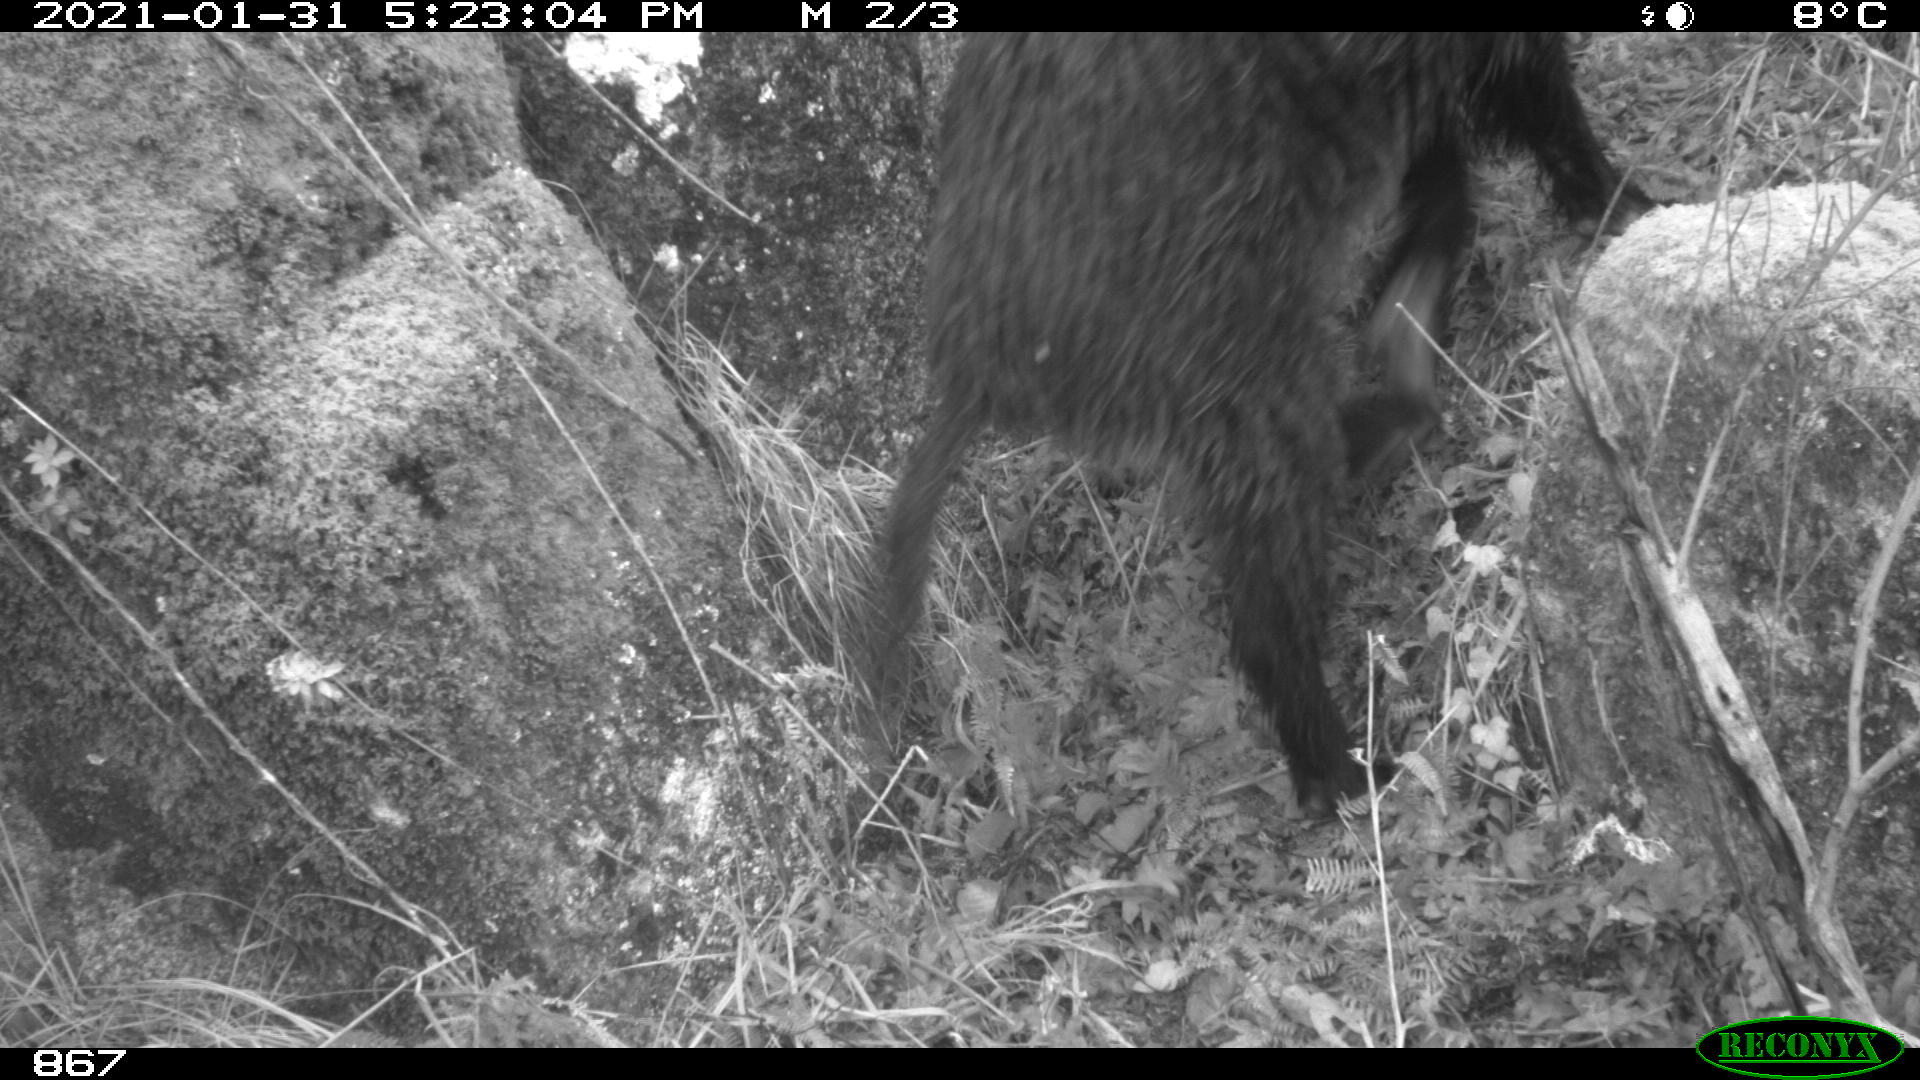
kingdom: Animalia
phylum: Chordata
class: Mammalia
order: Artiodactyla
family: Suidae
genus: Sus
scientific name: Sus scrofa
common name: Wild boar
